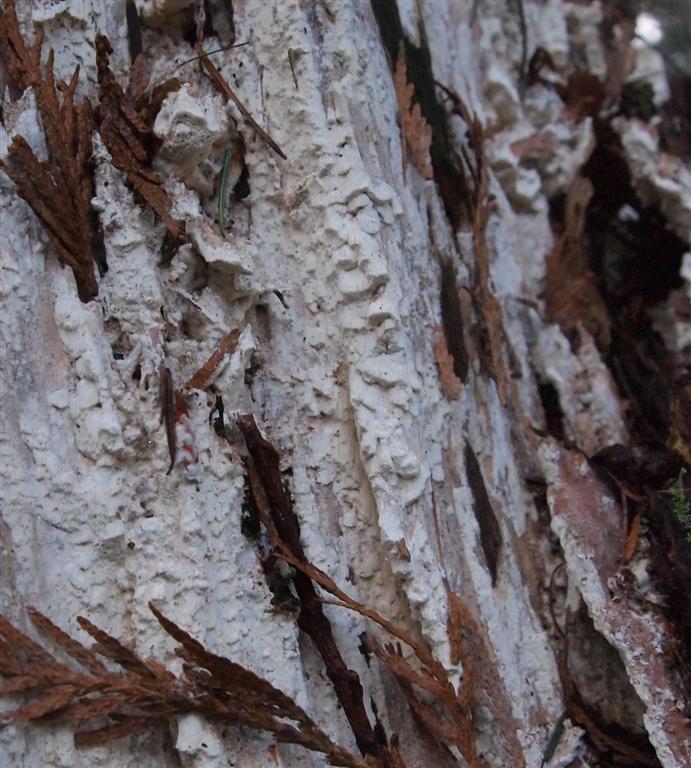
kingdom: Fungi
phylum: Basidiomycota
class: Agaricomycetes
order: Polyporales
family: Fomitopsidaceae
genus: Daedalea
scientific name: Daedalea xantha
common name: gul sejporesvamp
